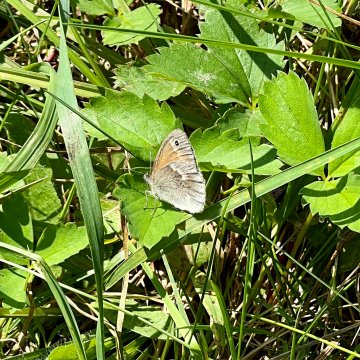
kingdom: Animalia
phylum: Arthropoda
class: Insecta
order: Lepidoptera
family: Nymphalidae
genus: Coenonympha
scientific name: Coenonympha california
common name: California Ringlet
